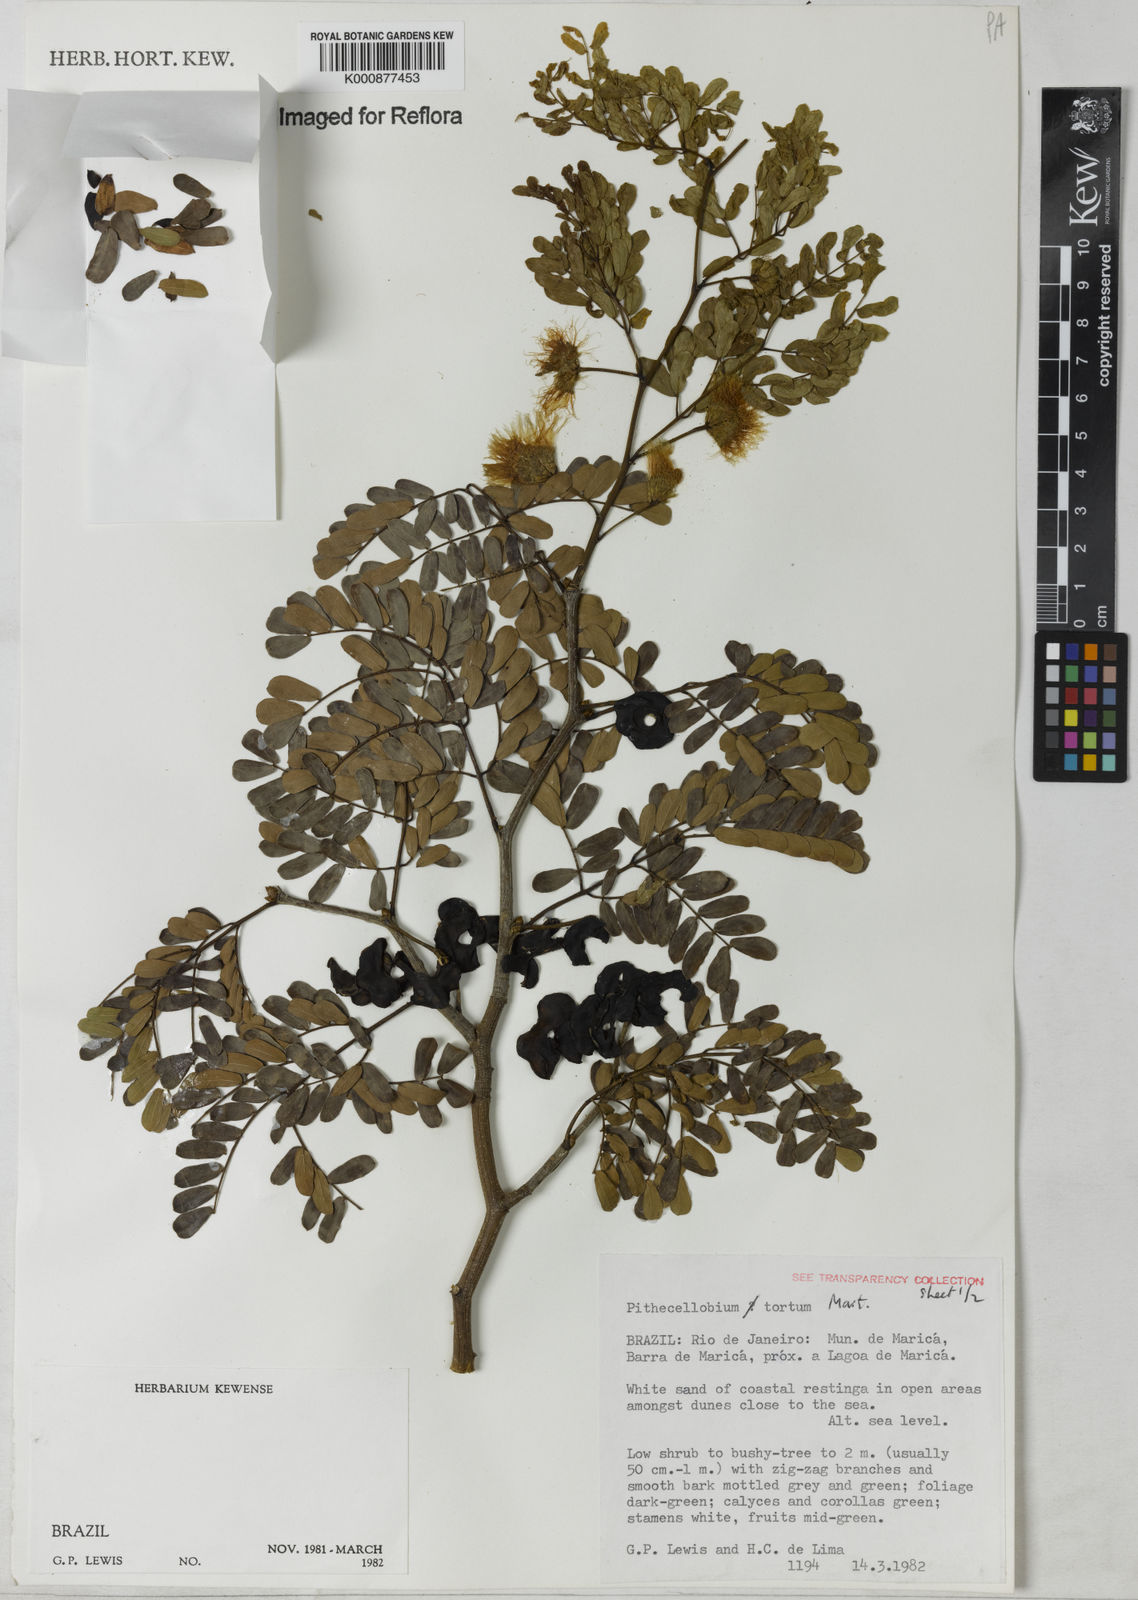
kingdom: Plantae
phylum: Tracheophyta
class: Magnoliopsida
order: Fabales
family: Fabaceae
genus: Chloroleucon
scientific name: Chloroleucon tortum
